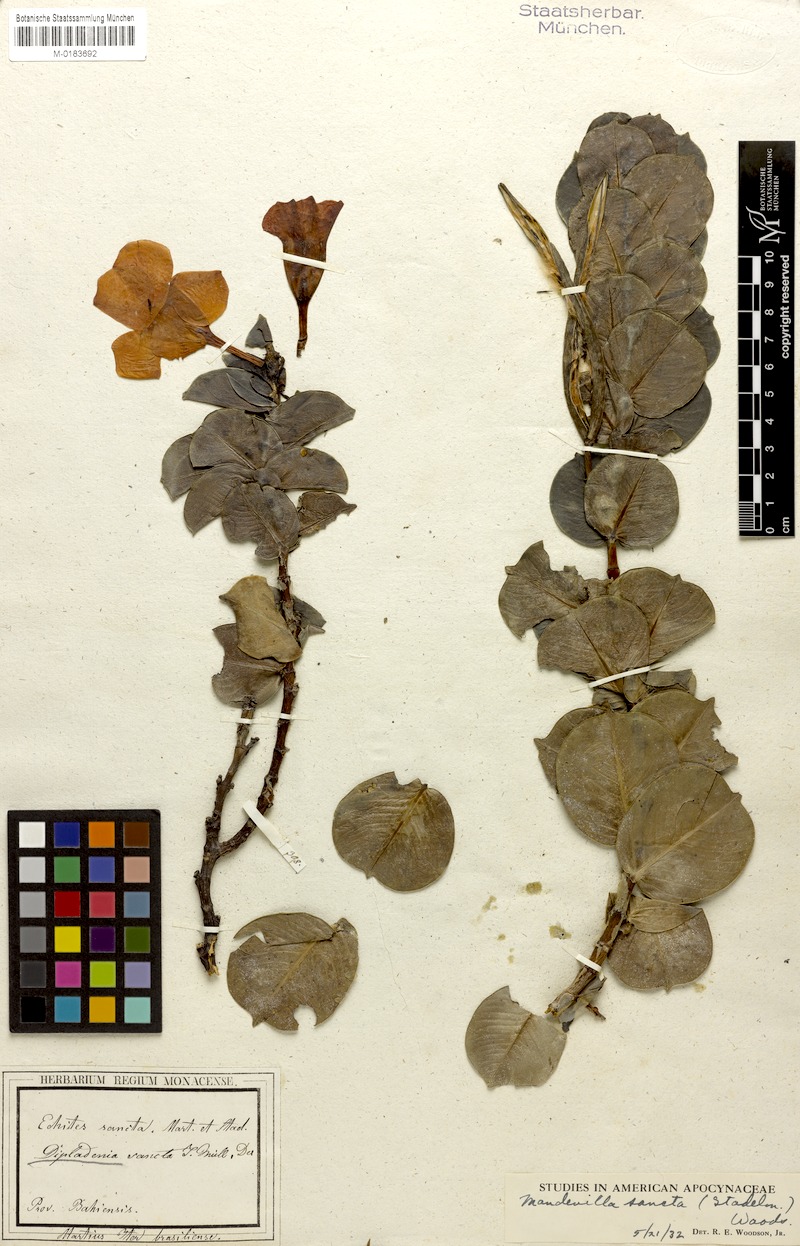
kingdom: Plantae
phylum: Tracheophyta
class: Magnoliopsida
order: Gentianales
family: Apocynaceae
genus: Mandevilla
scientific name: Mandevilla sancta
